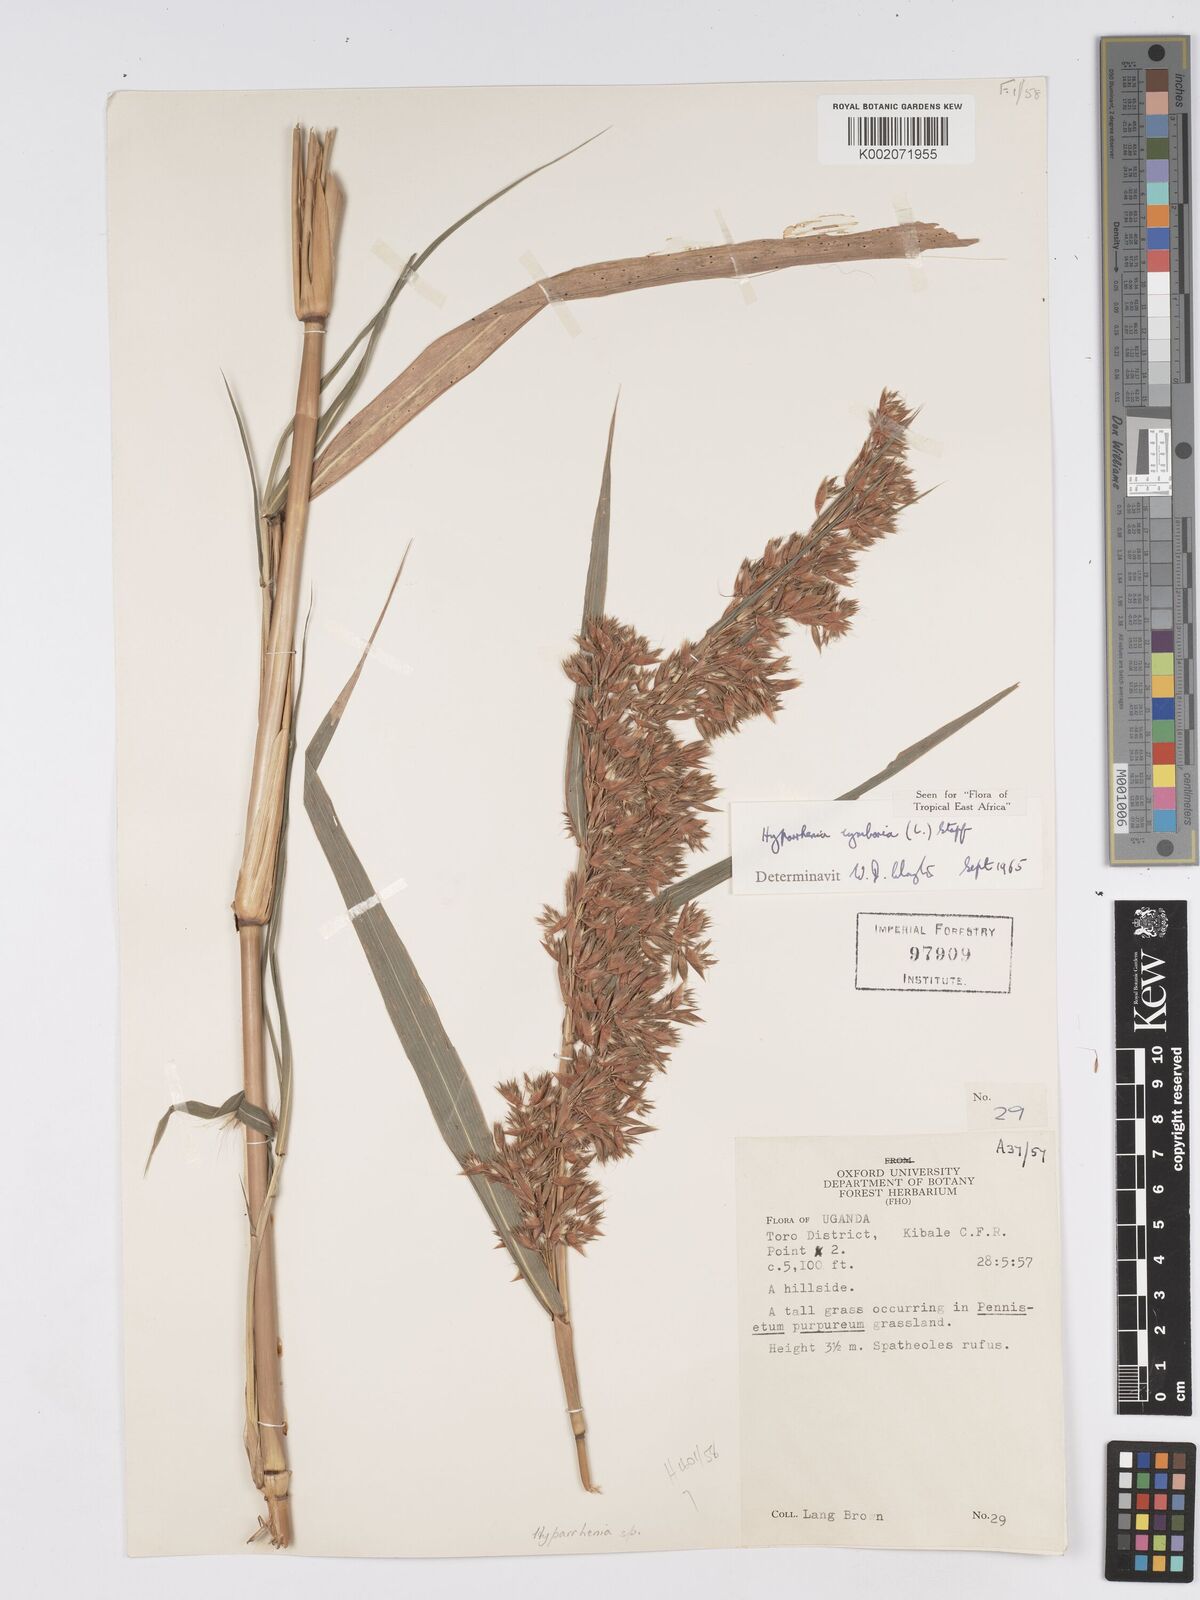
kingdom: Plantae
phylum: Tracheophyta
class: Liliopsida
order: Poales
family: Poaceae
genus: Hyparrhenia
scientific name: Hyparrhenia cymbaria
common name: Boat thatching grass
